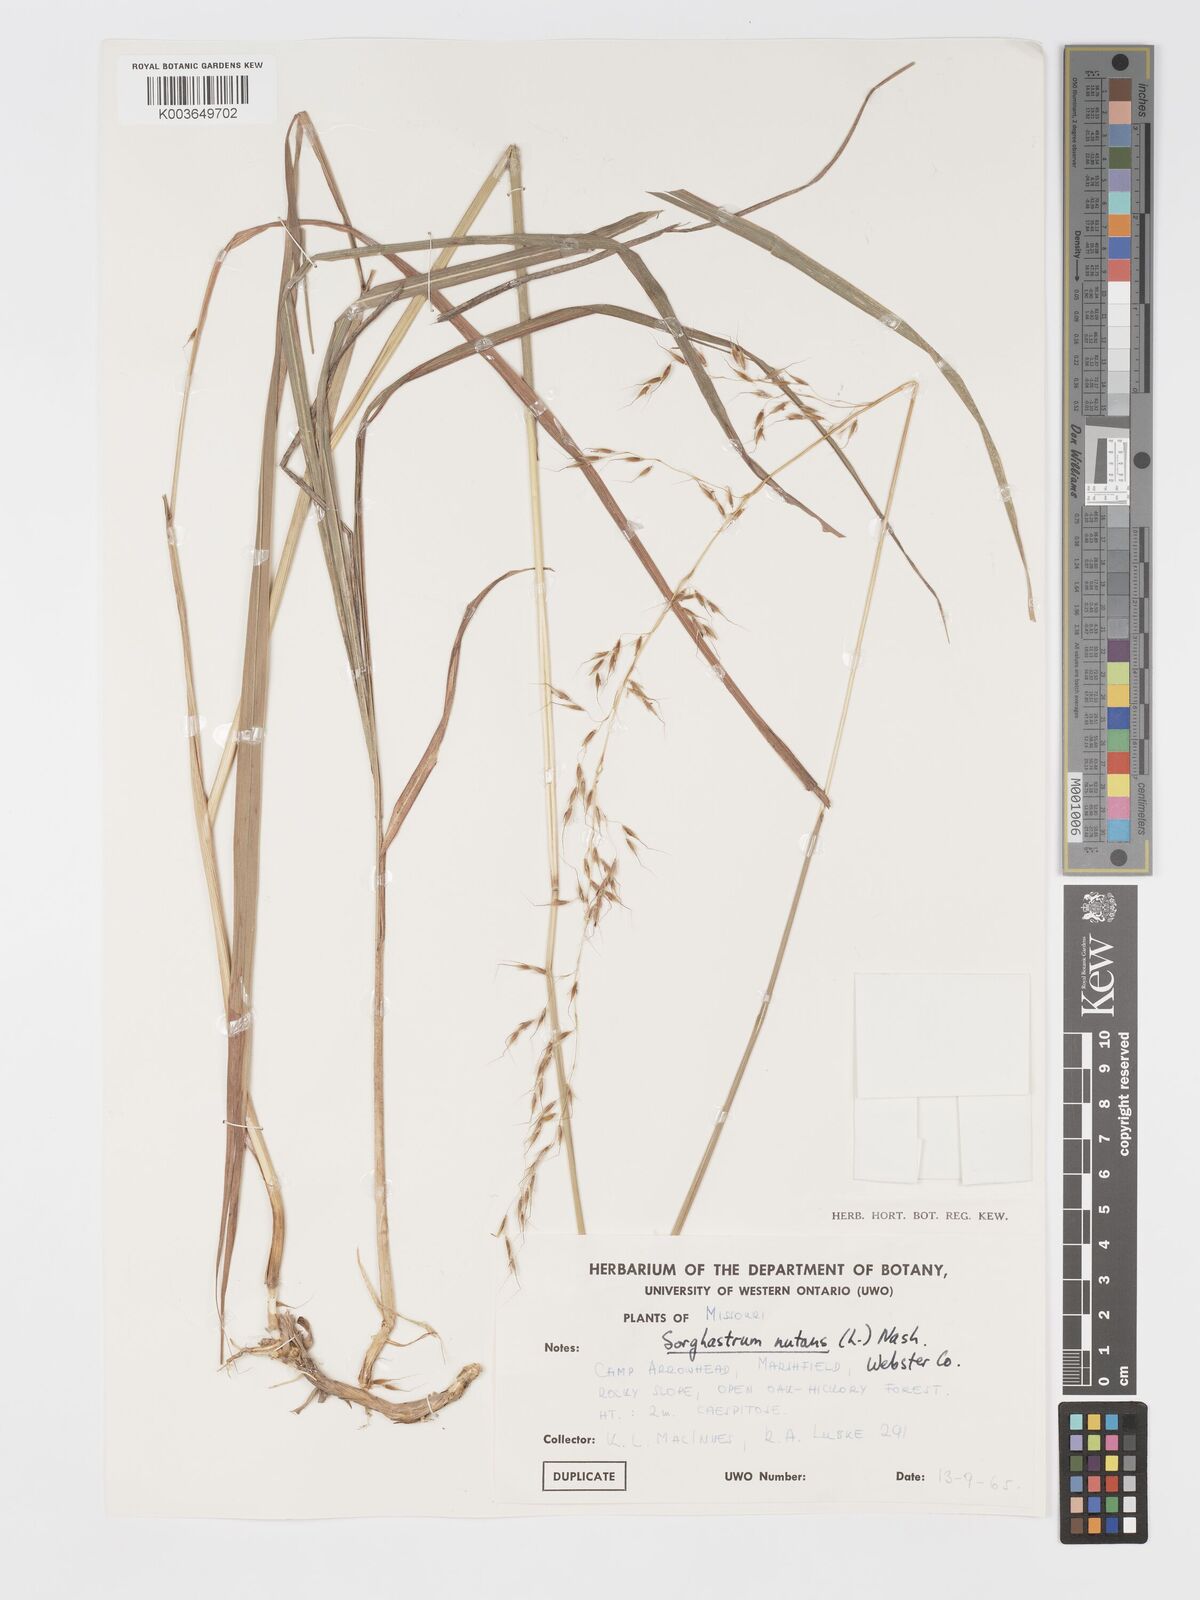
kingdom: Plantae
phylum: Tracheophyta
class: Liliopsida
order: Poales
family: Poaceae
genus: Sorghastrum
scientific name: Sorghastrum nutans
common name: Indian grass
